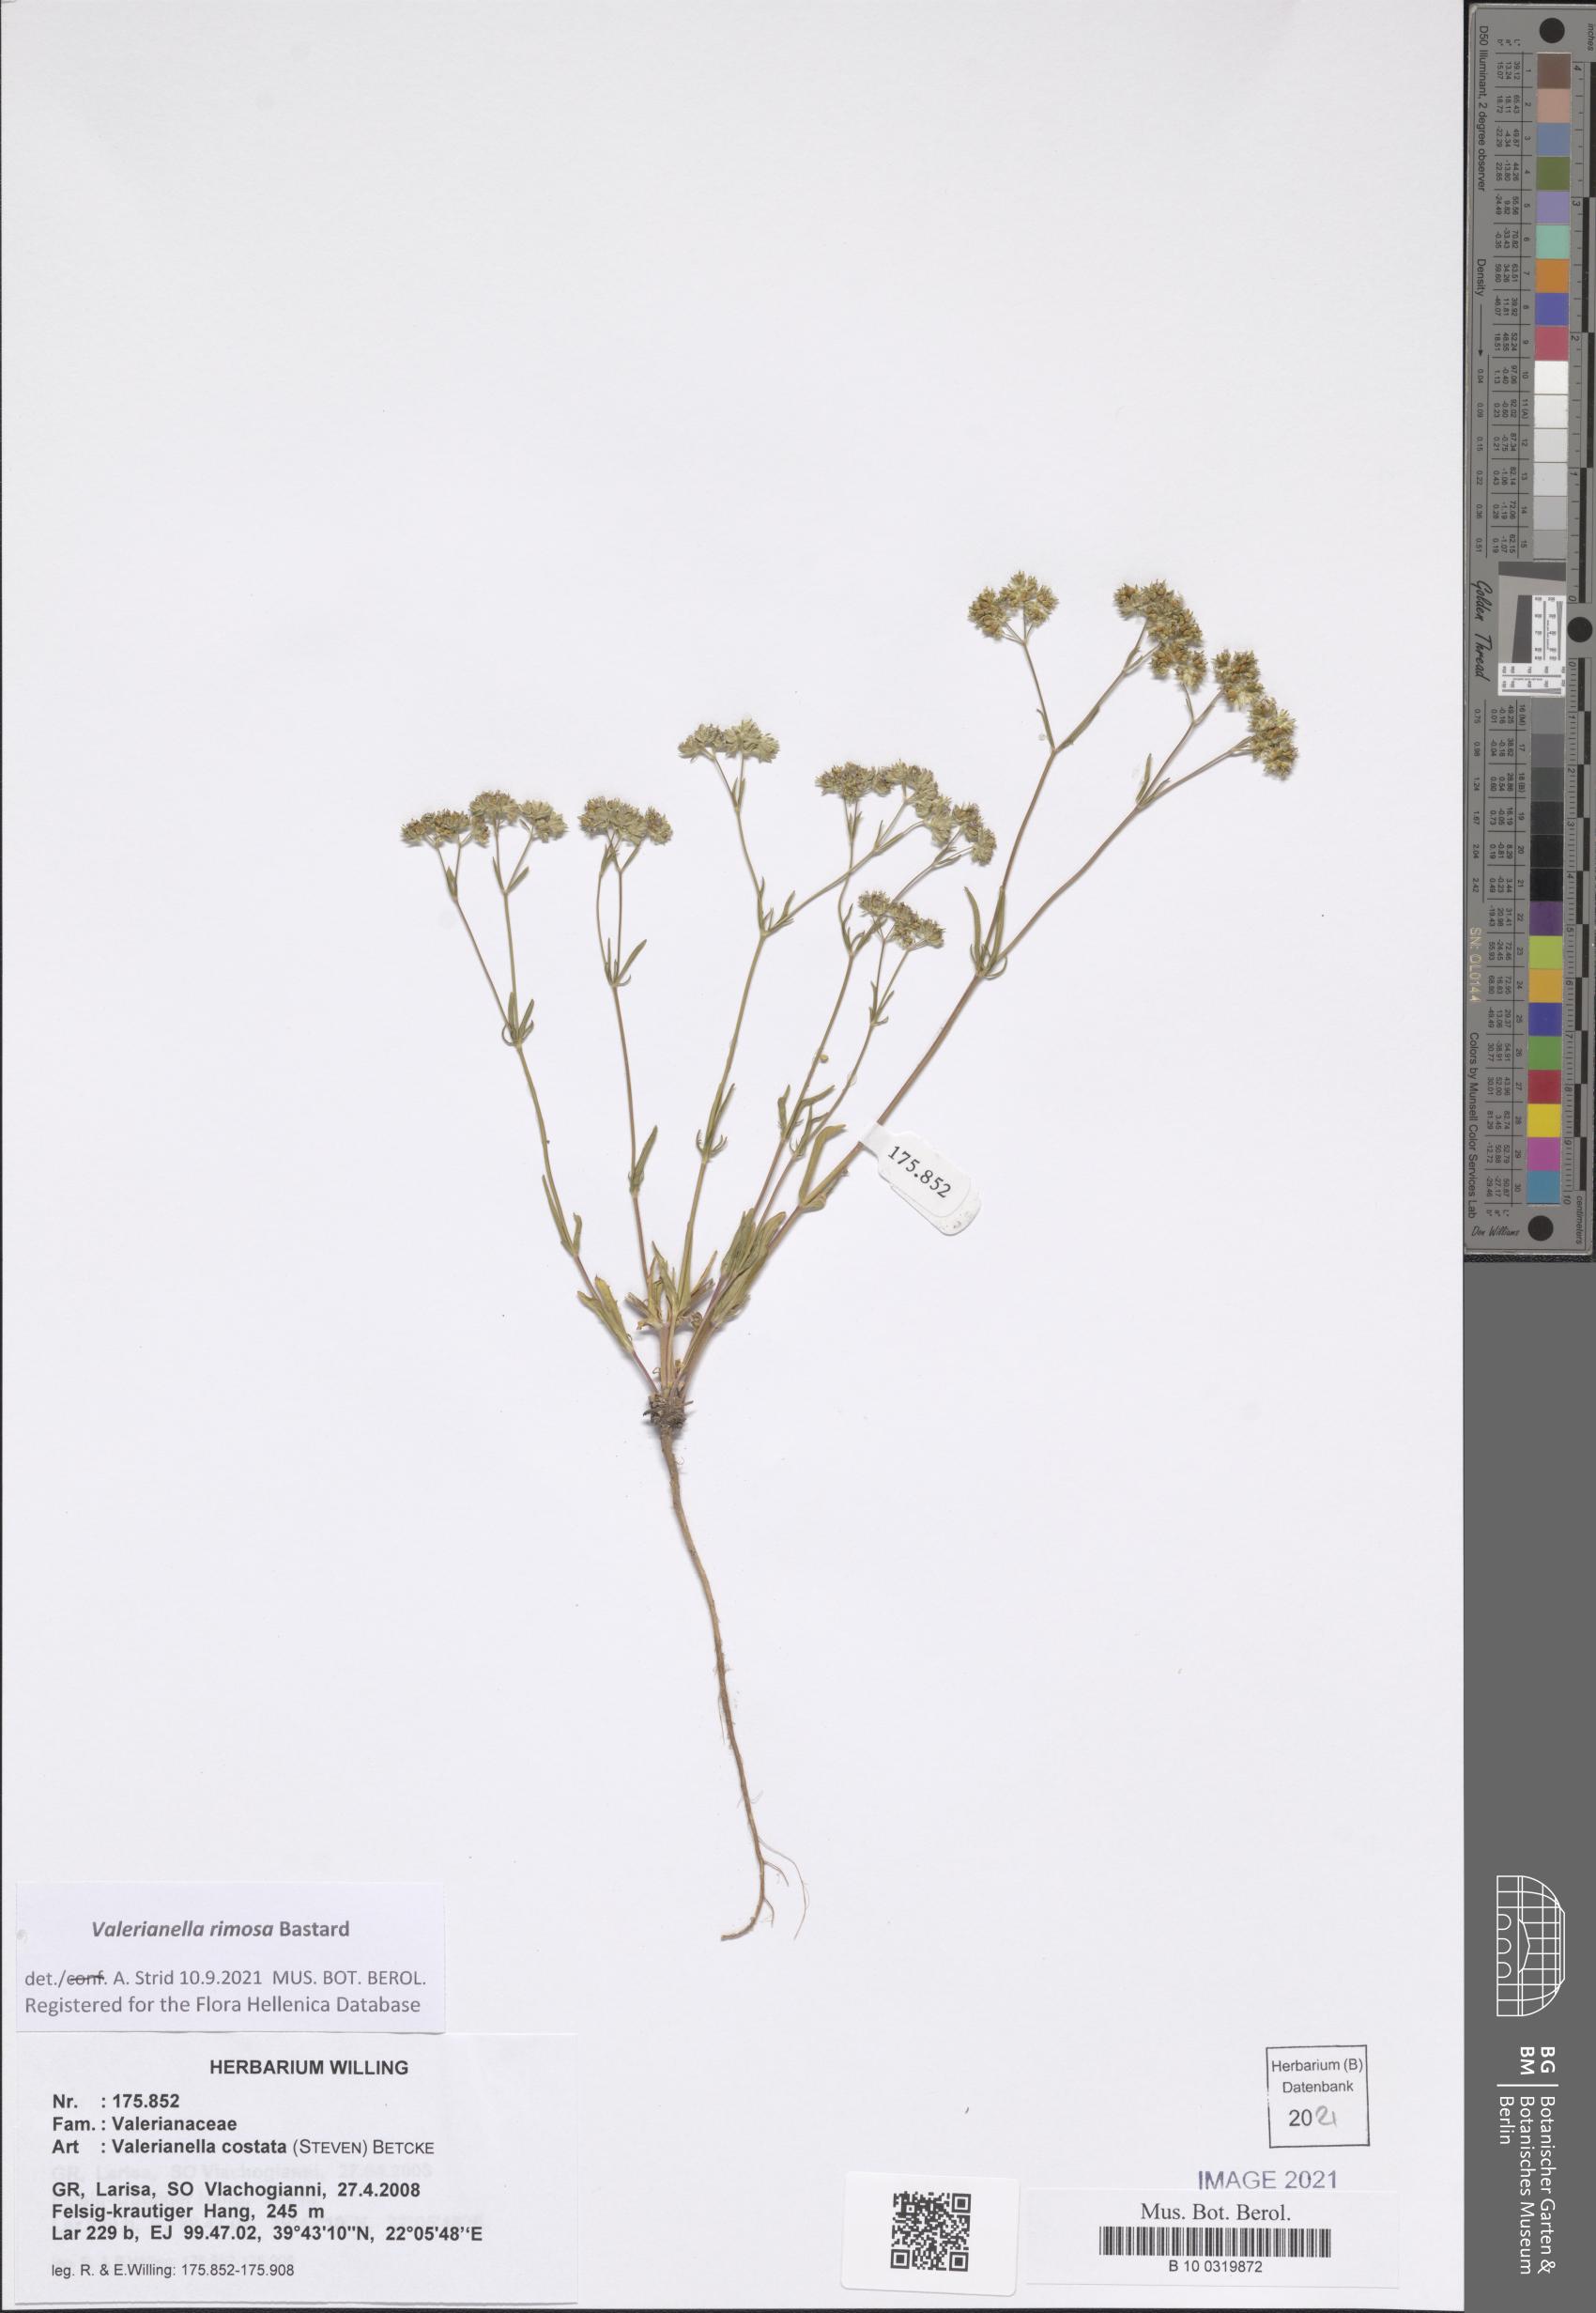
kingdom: Plantae
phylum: Tracheophyta
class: Magnoliopsida
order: Dipsacales
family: Caprifoliaceae
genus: Valerianella
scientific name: Valerianella rimosa
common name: Broad-fruited cornsalad
